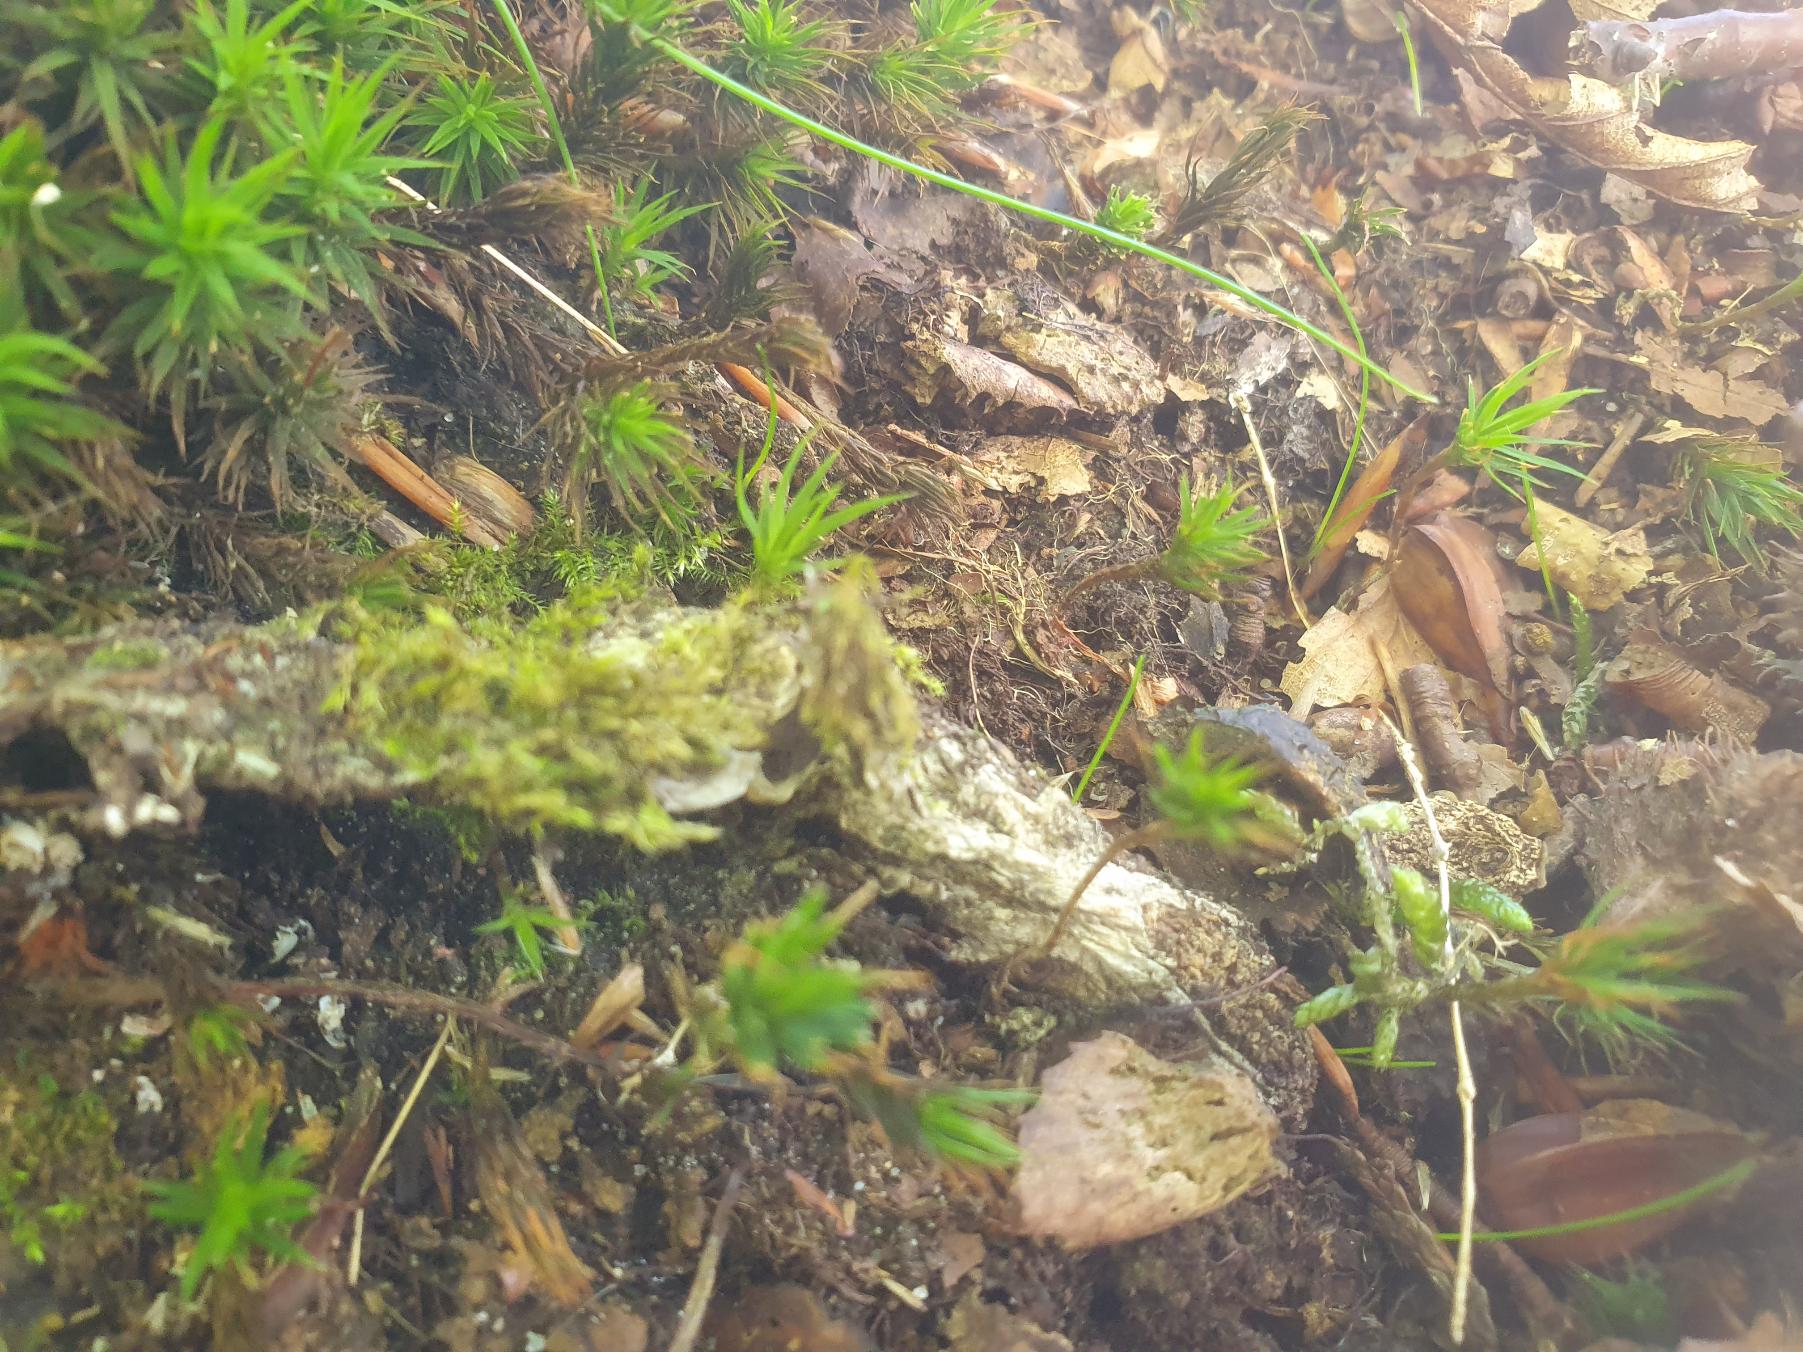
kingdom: Animalia
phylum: Arthropoda
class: Arachnida
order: Araneae
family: Atypidae
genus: Atypus
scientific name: Atypus affinis
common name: Nordlig fugleedderkop
